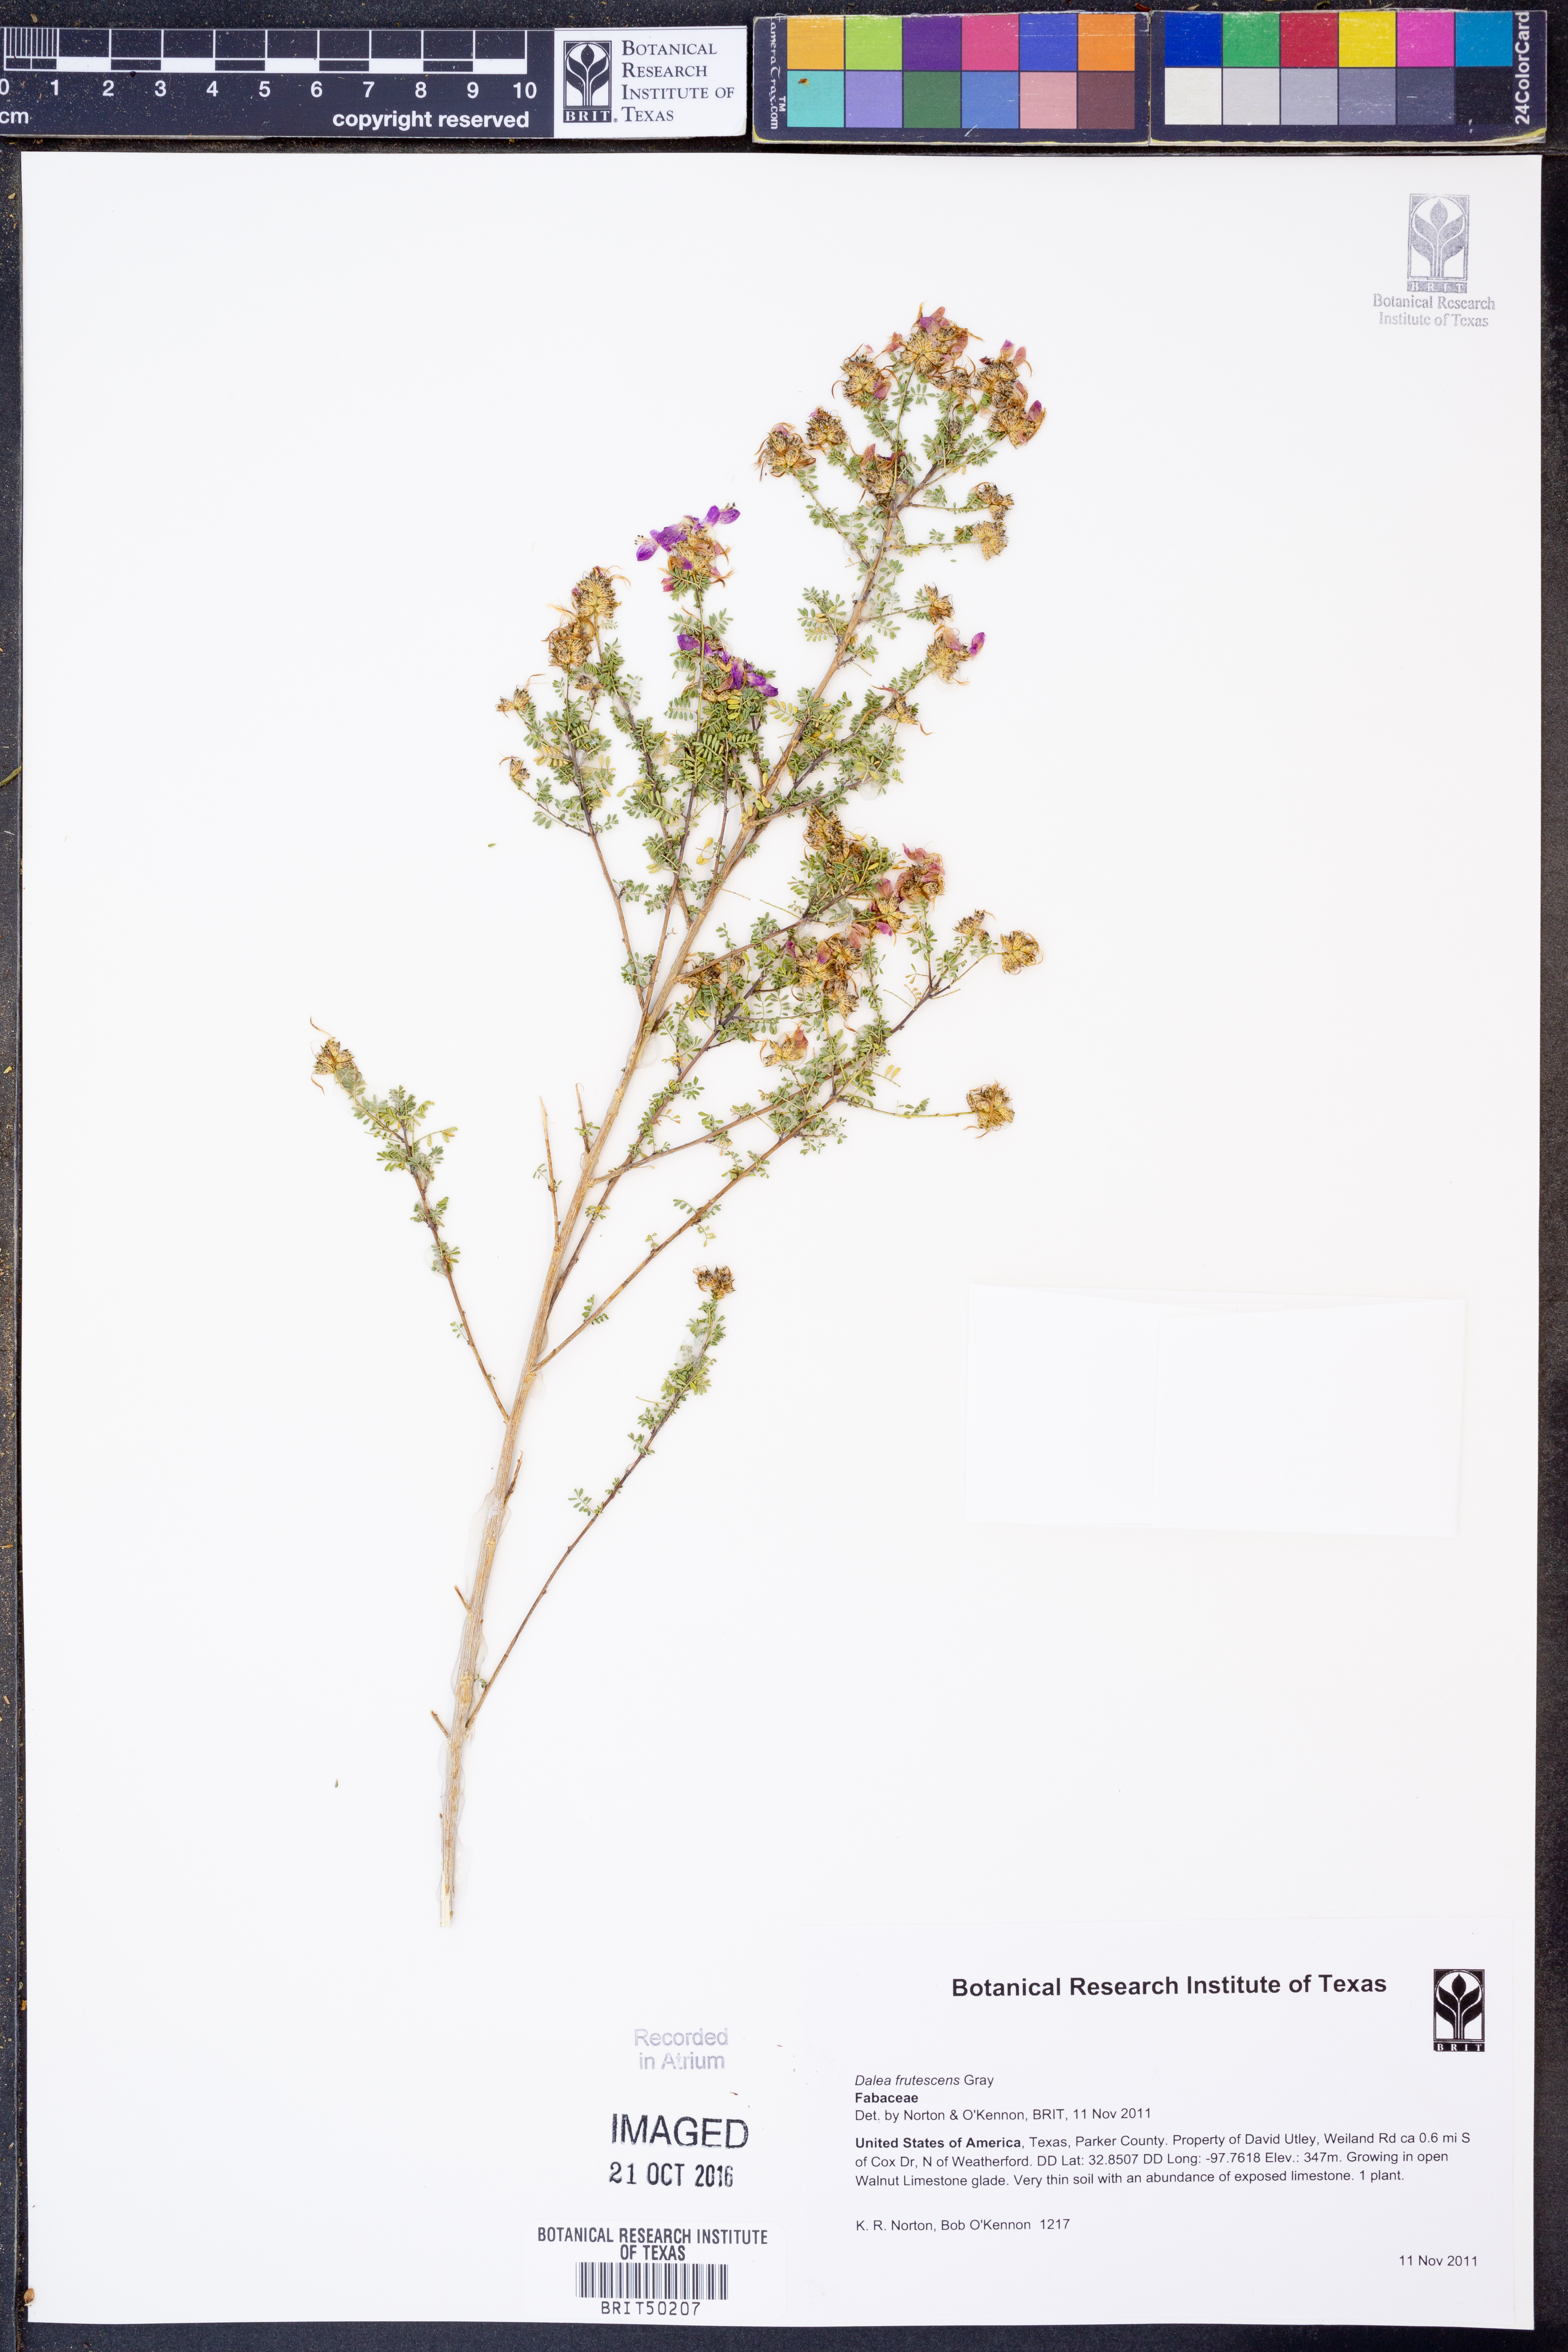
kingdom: Plantae
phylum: Tracheophyta
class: Magnoliopsida
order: Fabales
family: Fabaceae
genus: Dalea
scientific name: Dalea frutescens
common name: Black dalea
